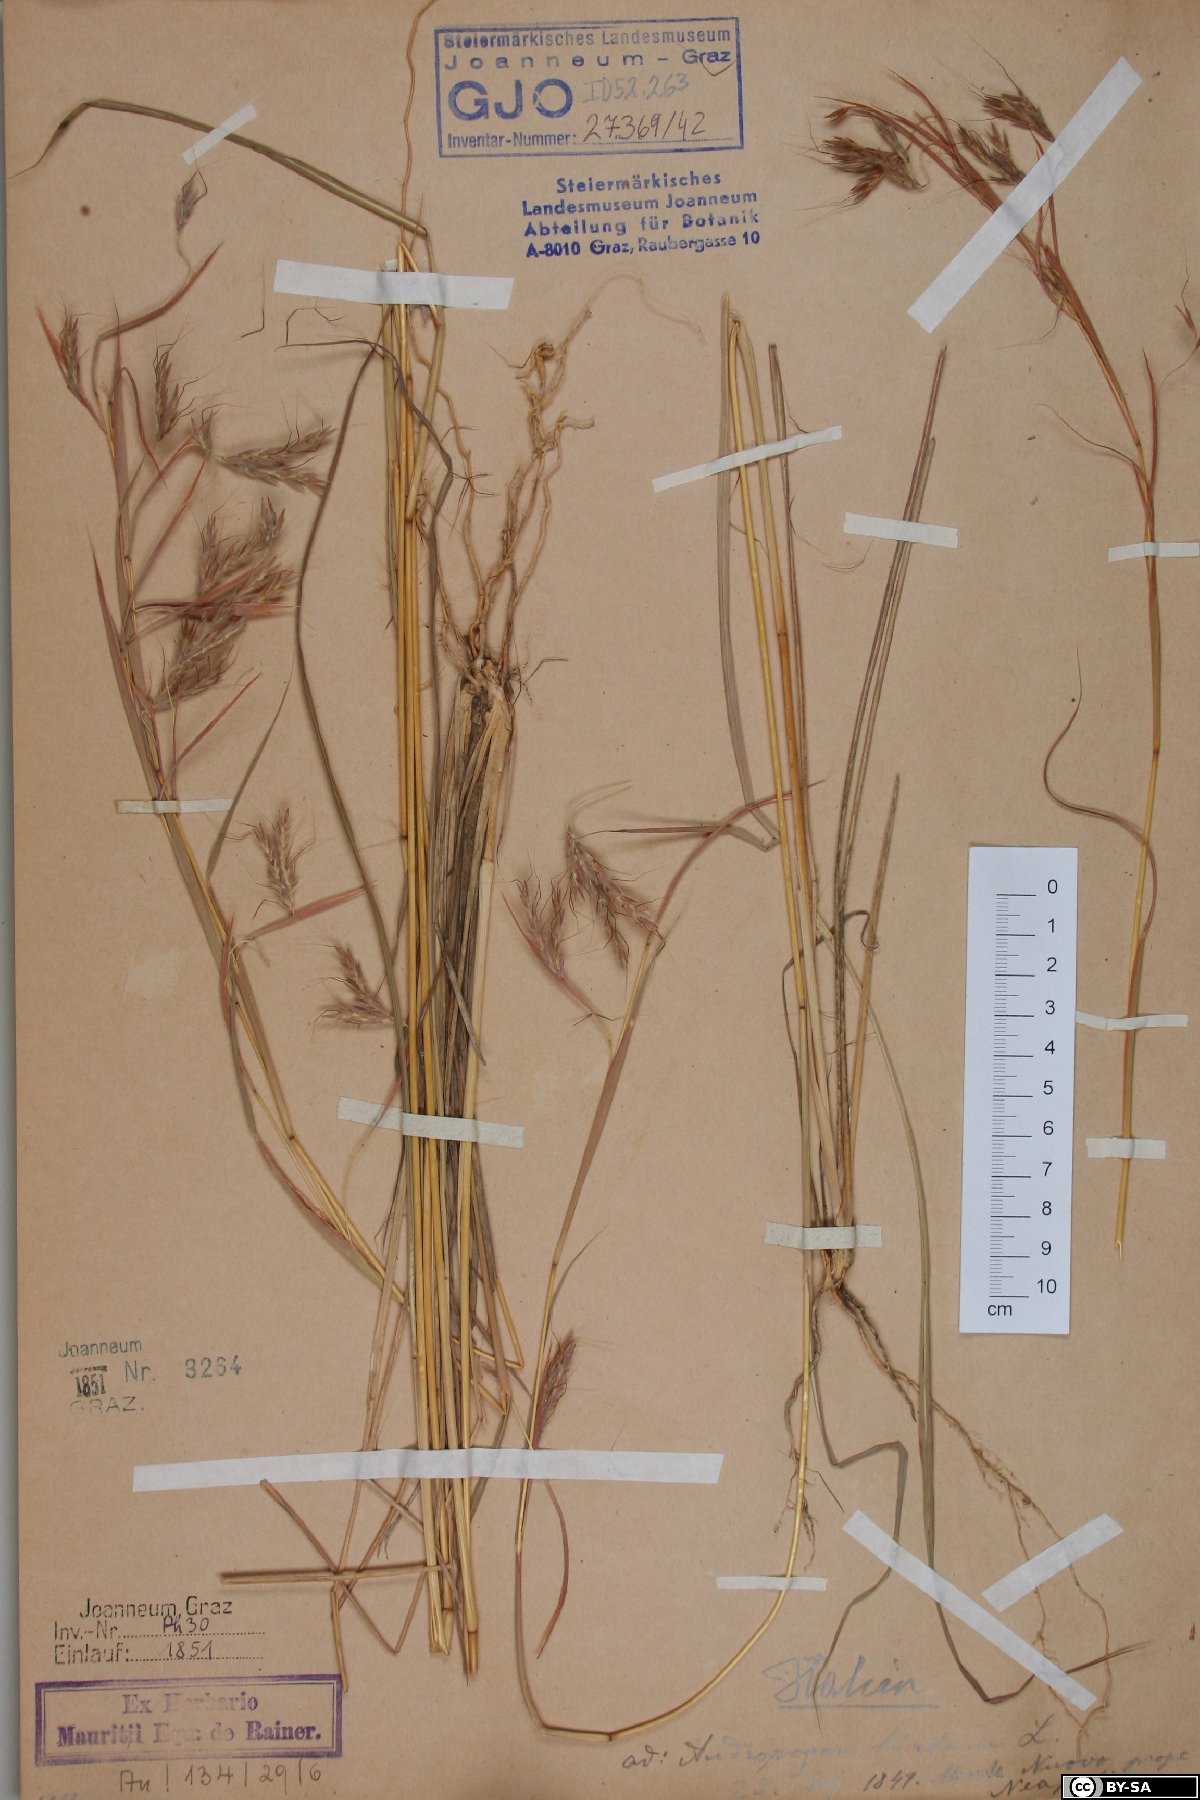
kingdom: Plantae
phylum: Tracheophyta
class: Liliopsida
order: Poales
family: Poaceae
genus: Hyparrhenia
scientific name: Hyparrhenia hirta
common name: Thatching grass
